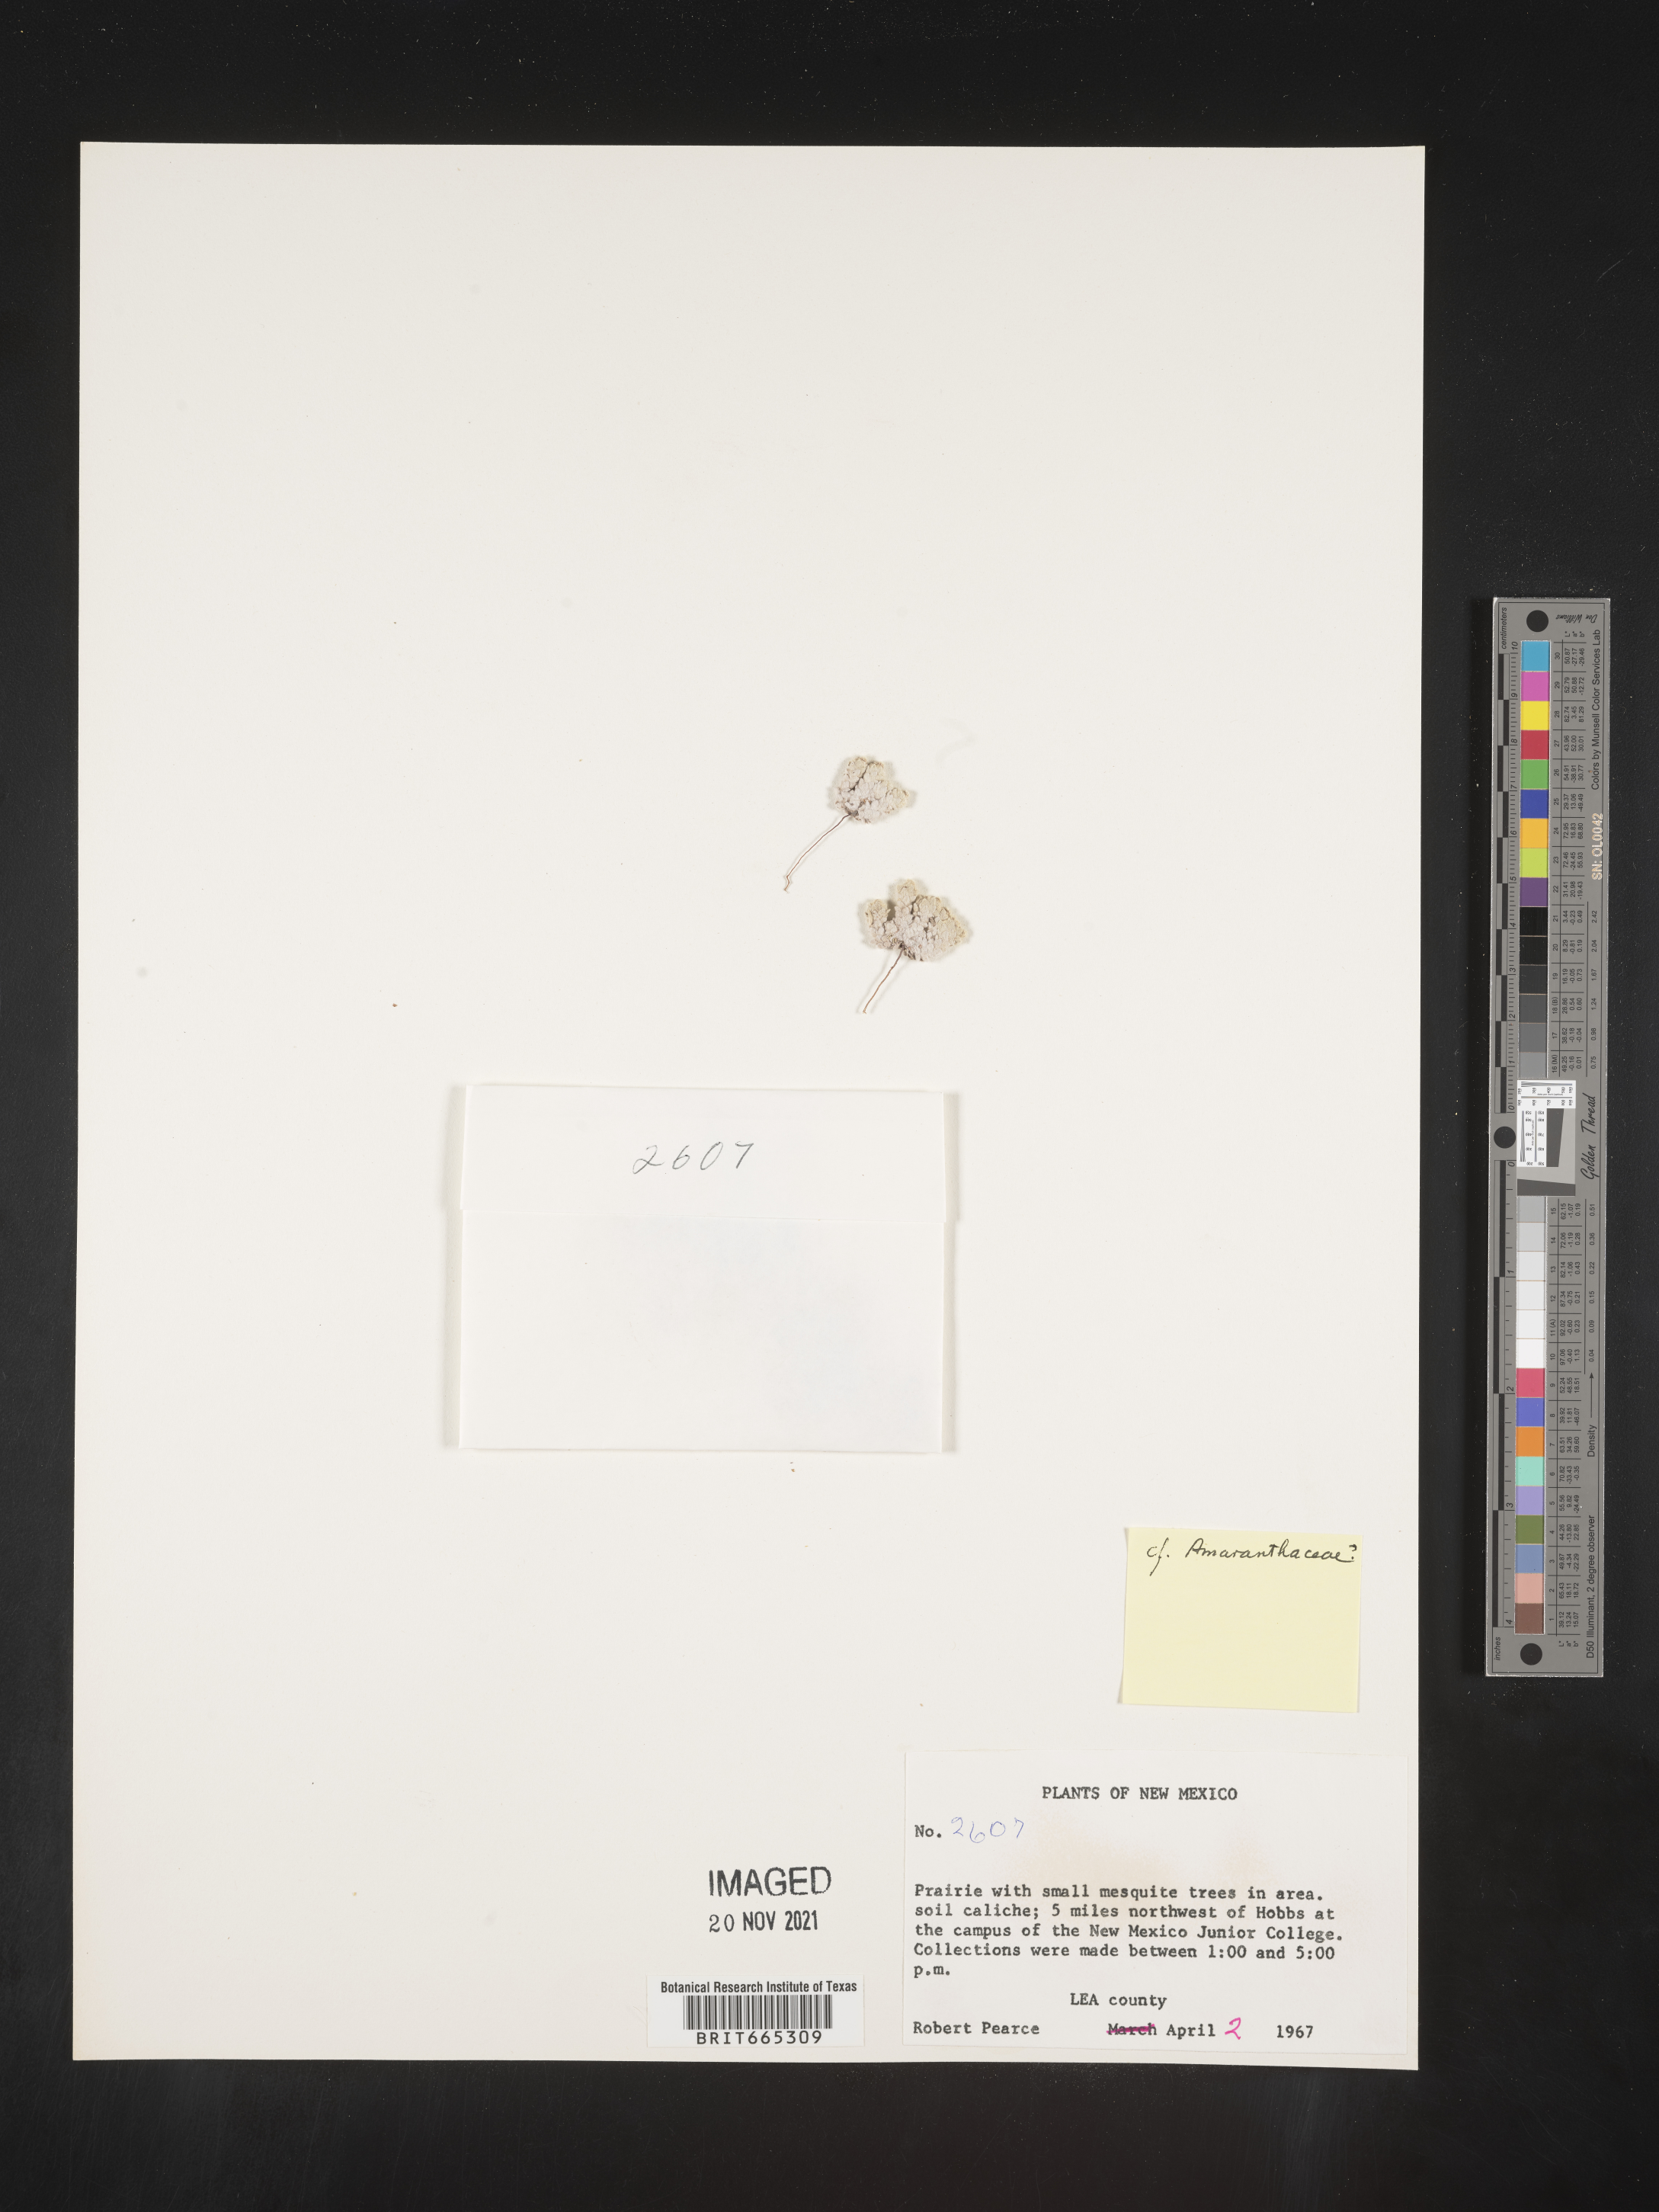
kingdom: Plantae
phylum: Tracheophyta
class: Magnoliopsida
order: Caryophyllales
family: Amaranthaceae
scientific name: Amaranthaceae
